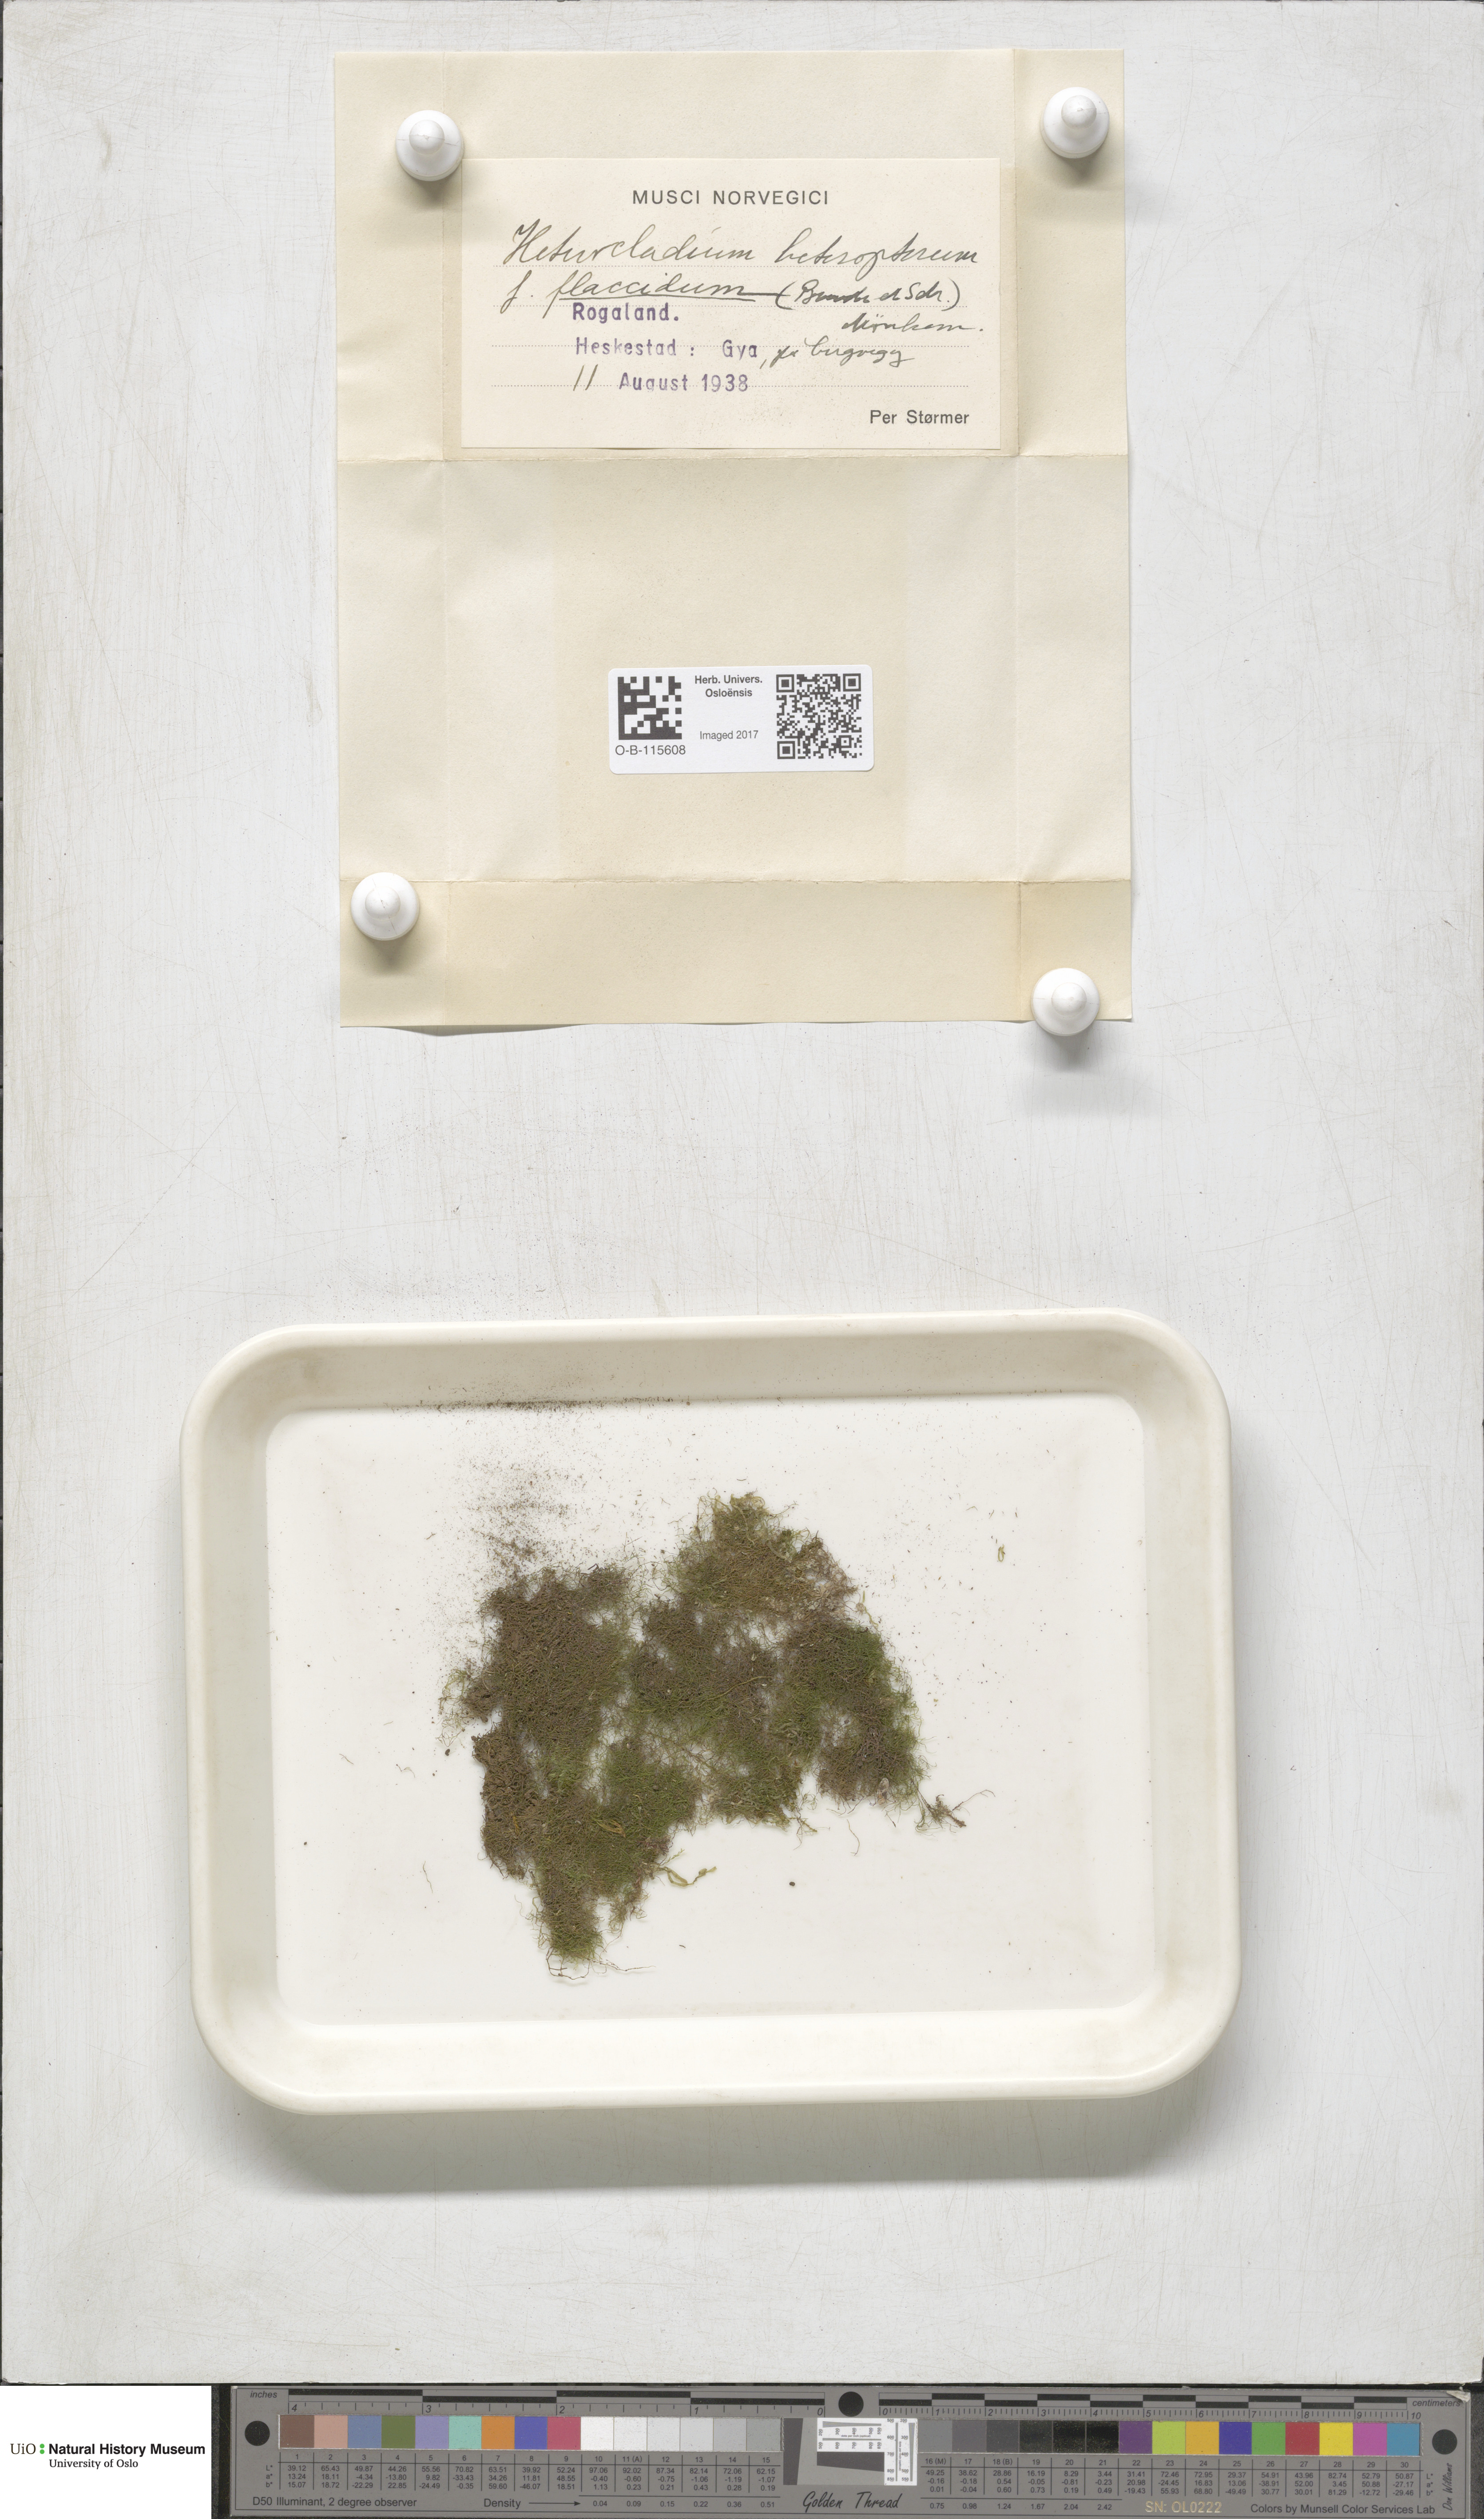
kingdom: Plantae
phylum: Bryophyta
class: Bryopsida
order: Hypnales
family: Lembophyllaceae
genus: Heterocladium
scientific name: Heterocladium heteropterum
